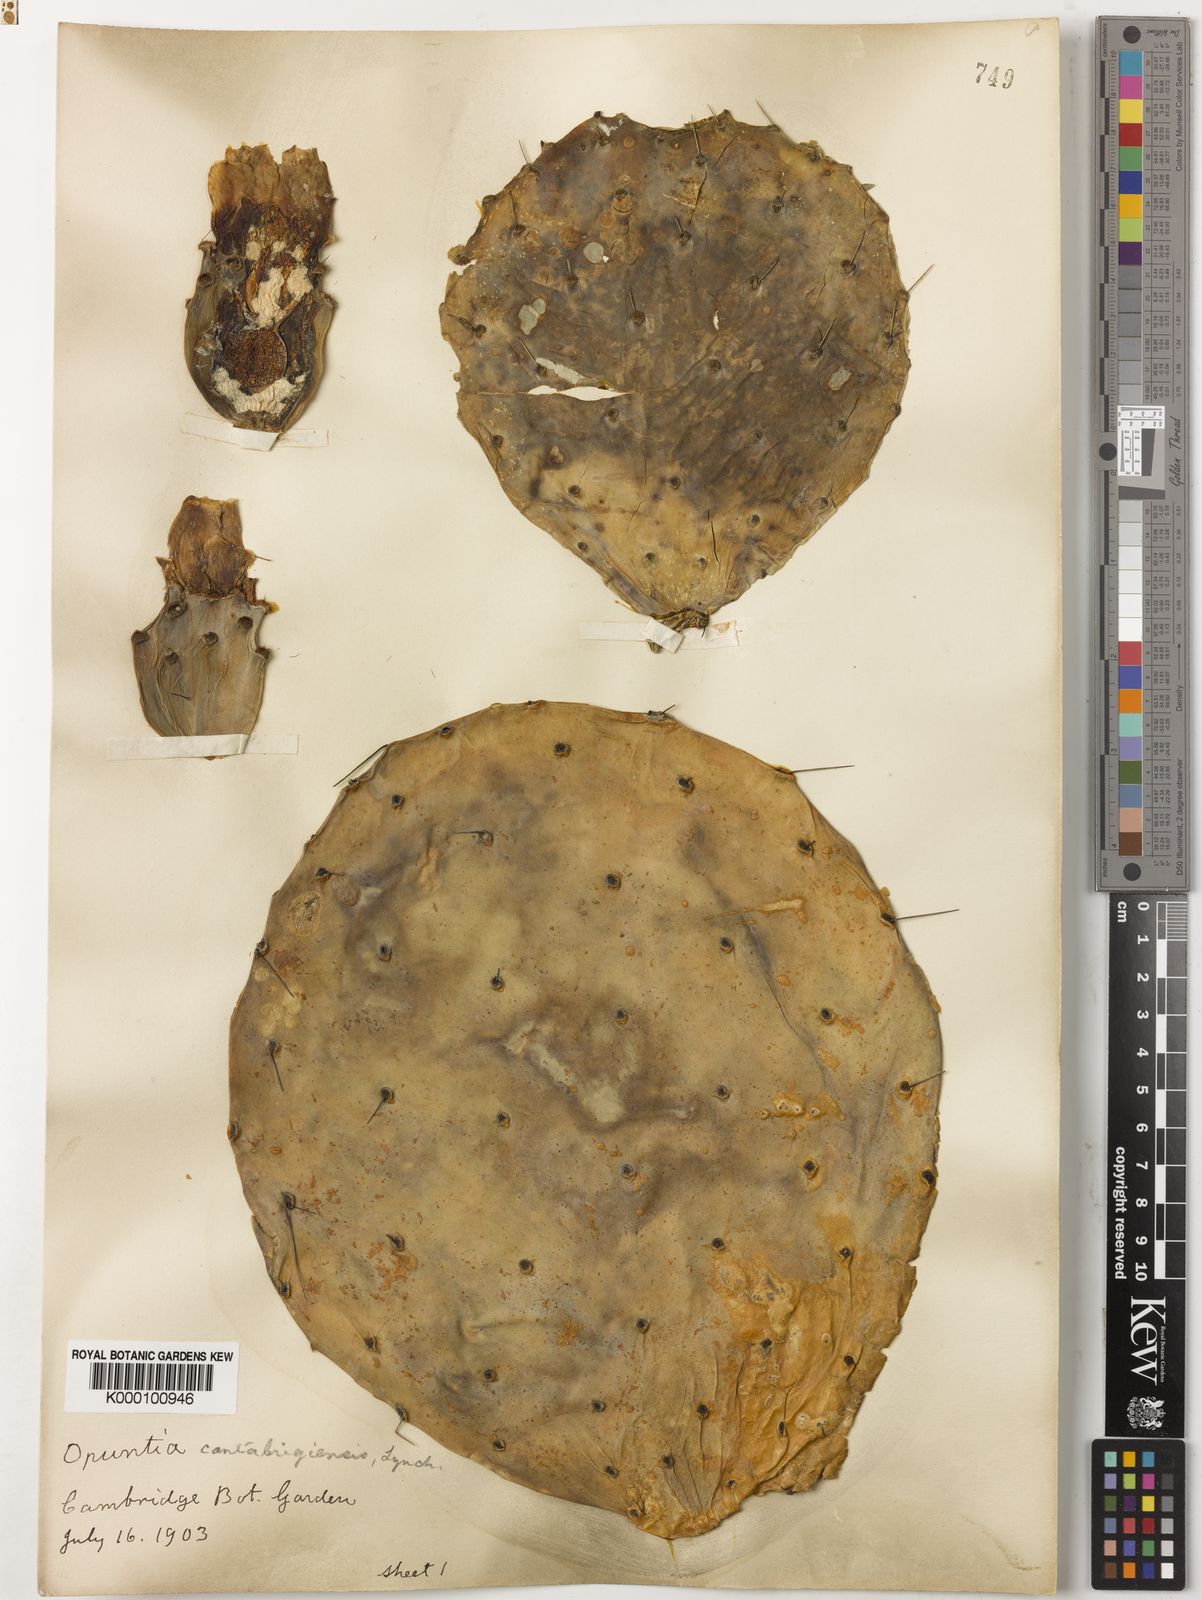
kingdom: Plantae
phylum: Tracheophyta
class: Magnoliopsida
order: Caryophyllales
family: Cactaceae
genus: Opuntia
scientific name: Opuntia engelmannii
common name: Cactus-apple
